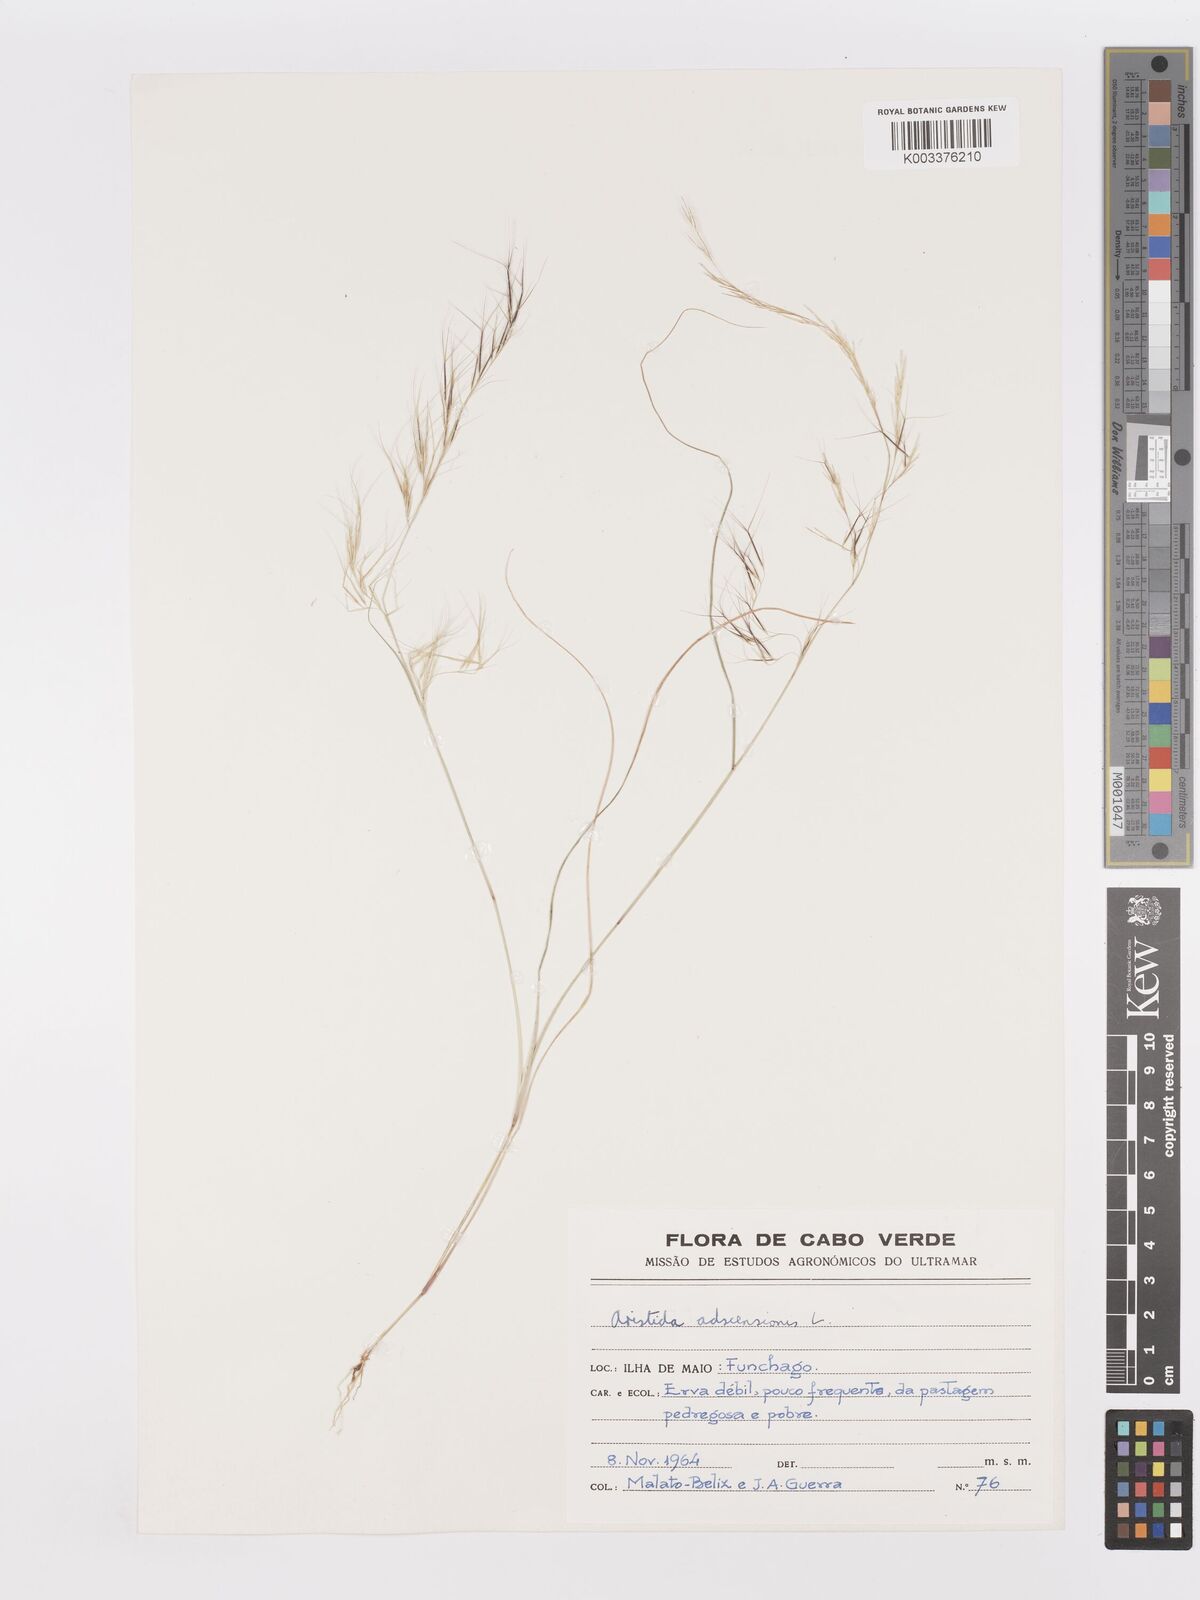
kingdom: Plantae
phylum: Tracheophyta
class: Liliopsida
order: Poales
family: Poaceae
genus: Aristida
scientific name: Aristida adscensionis
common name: Sixweeks threeawn
